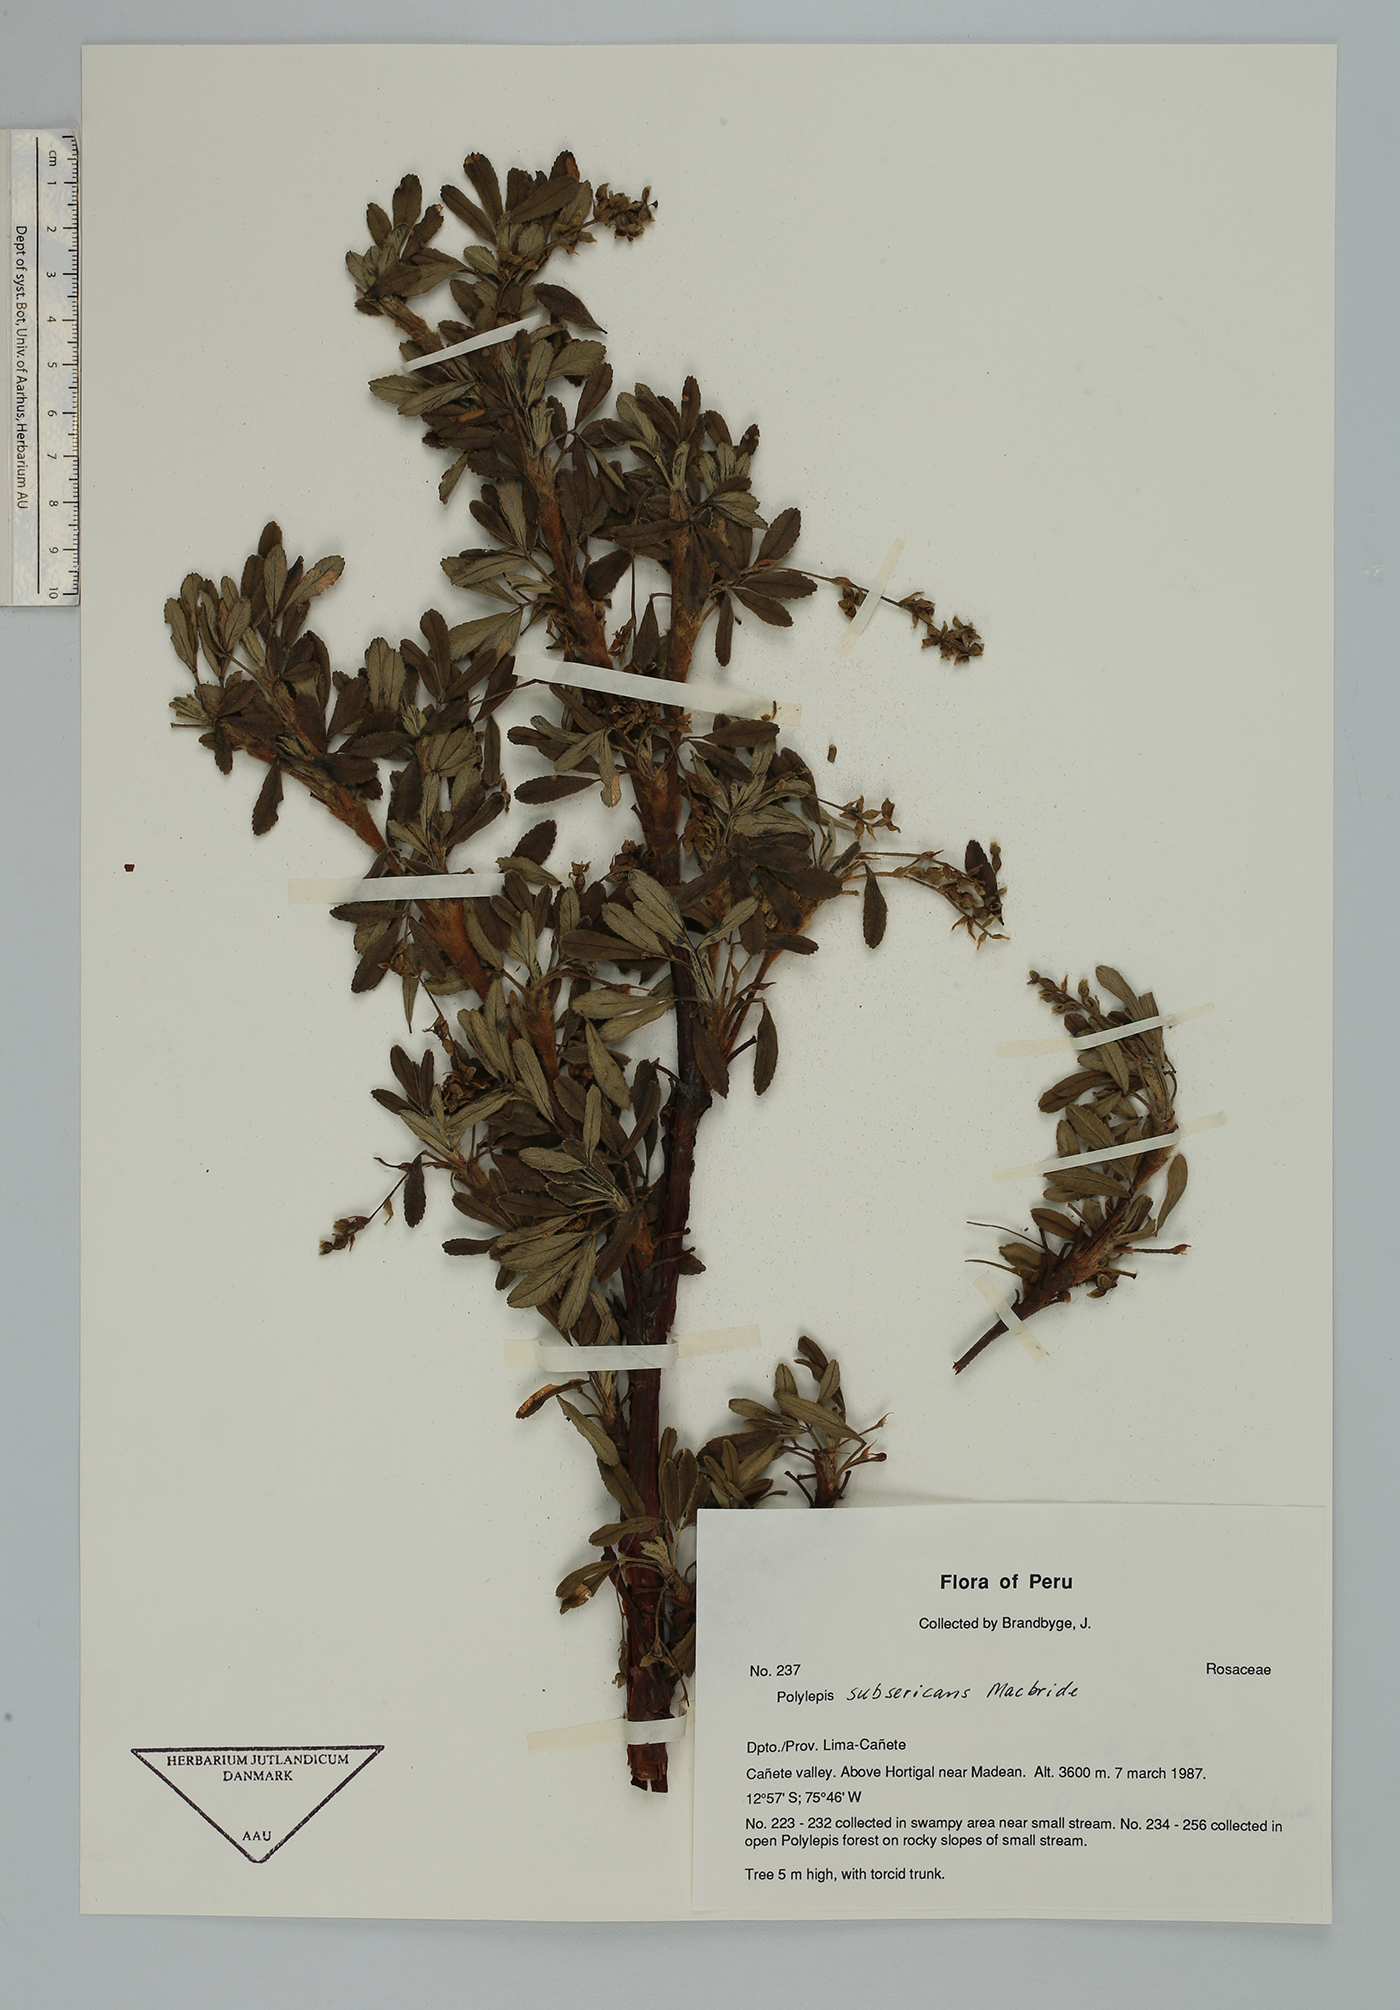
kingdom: Plantae
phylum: Tracheophyta
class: Magnoliopsida
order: Rosales
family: Rosaceae
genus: Polylepis
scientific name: Polylepis flavipila
